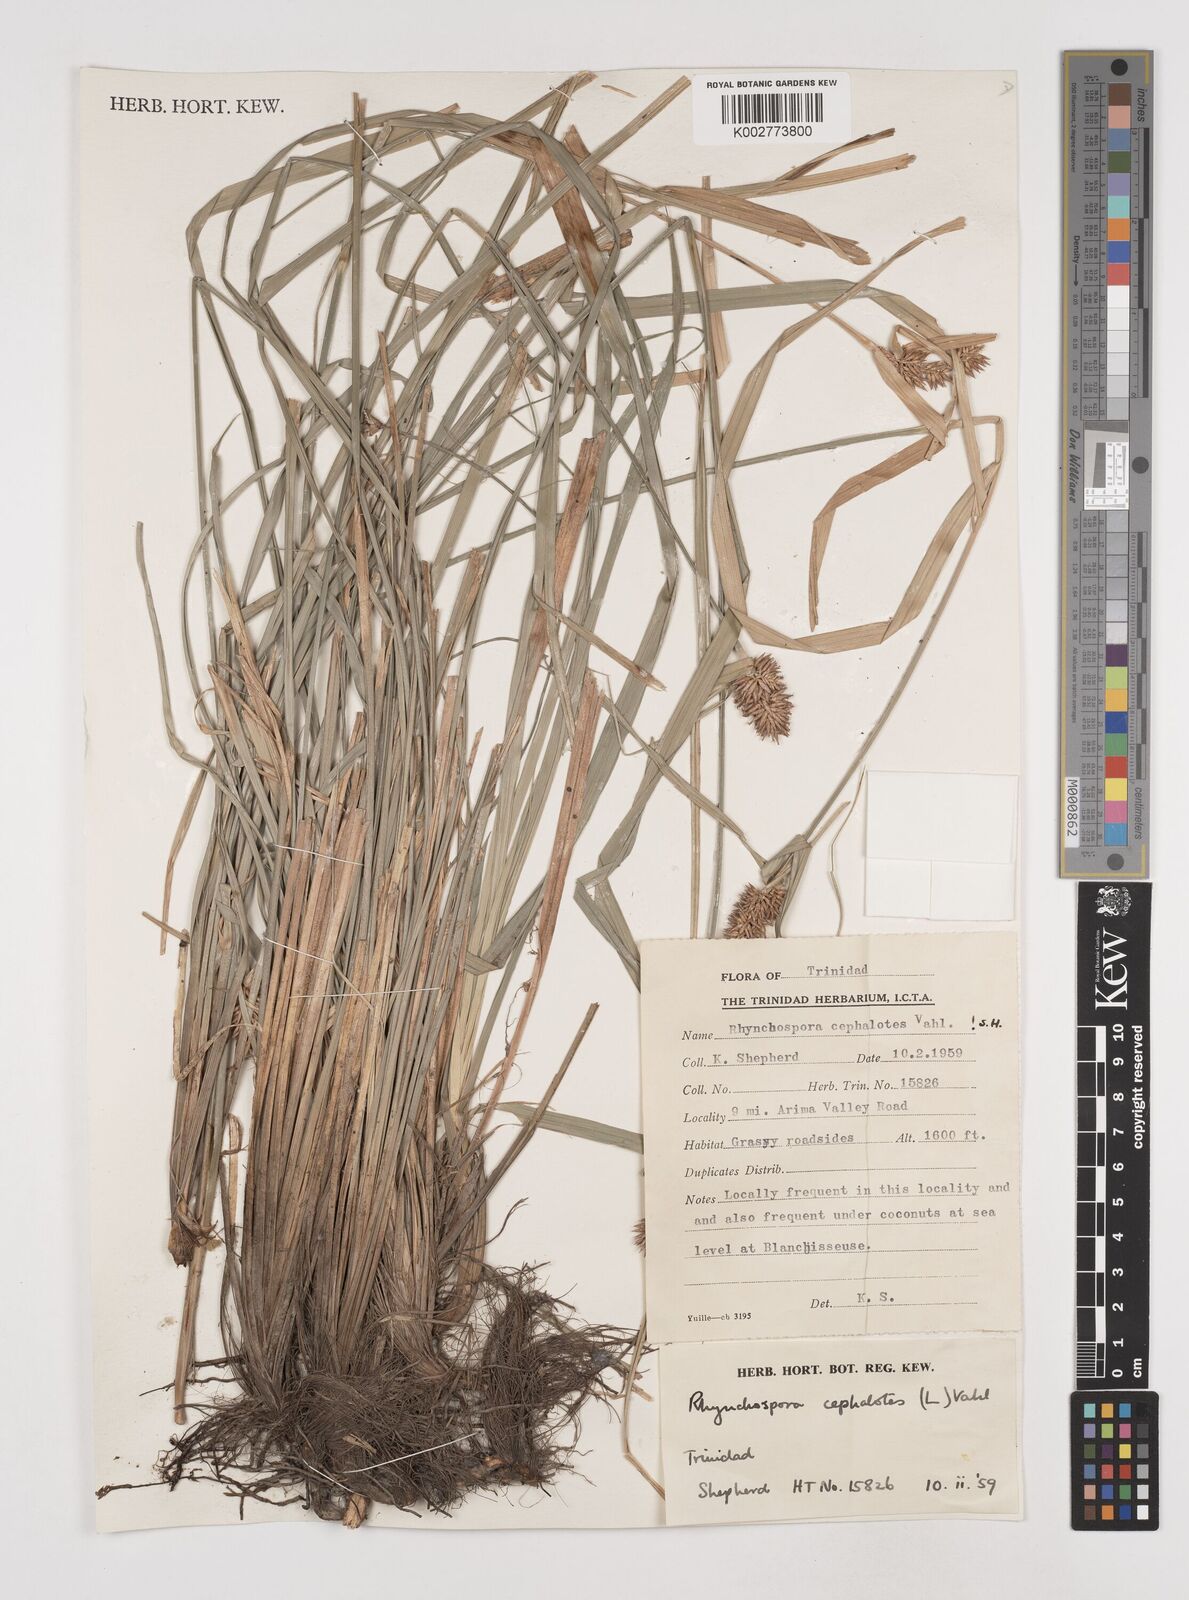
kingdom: Plantae
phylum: Tracheophyta
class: Liliopsida
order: Poales
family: Cyperaceae
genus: Rhynchospora
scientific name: Rhynchospora cephalotes
